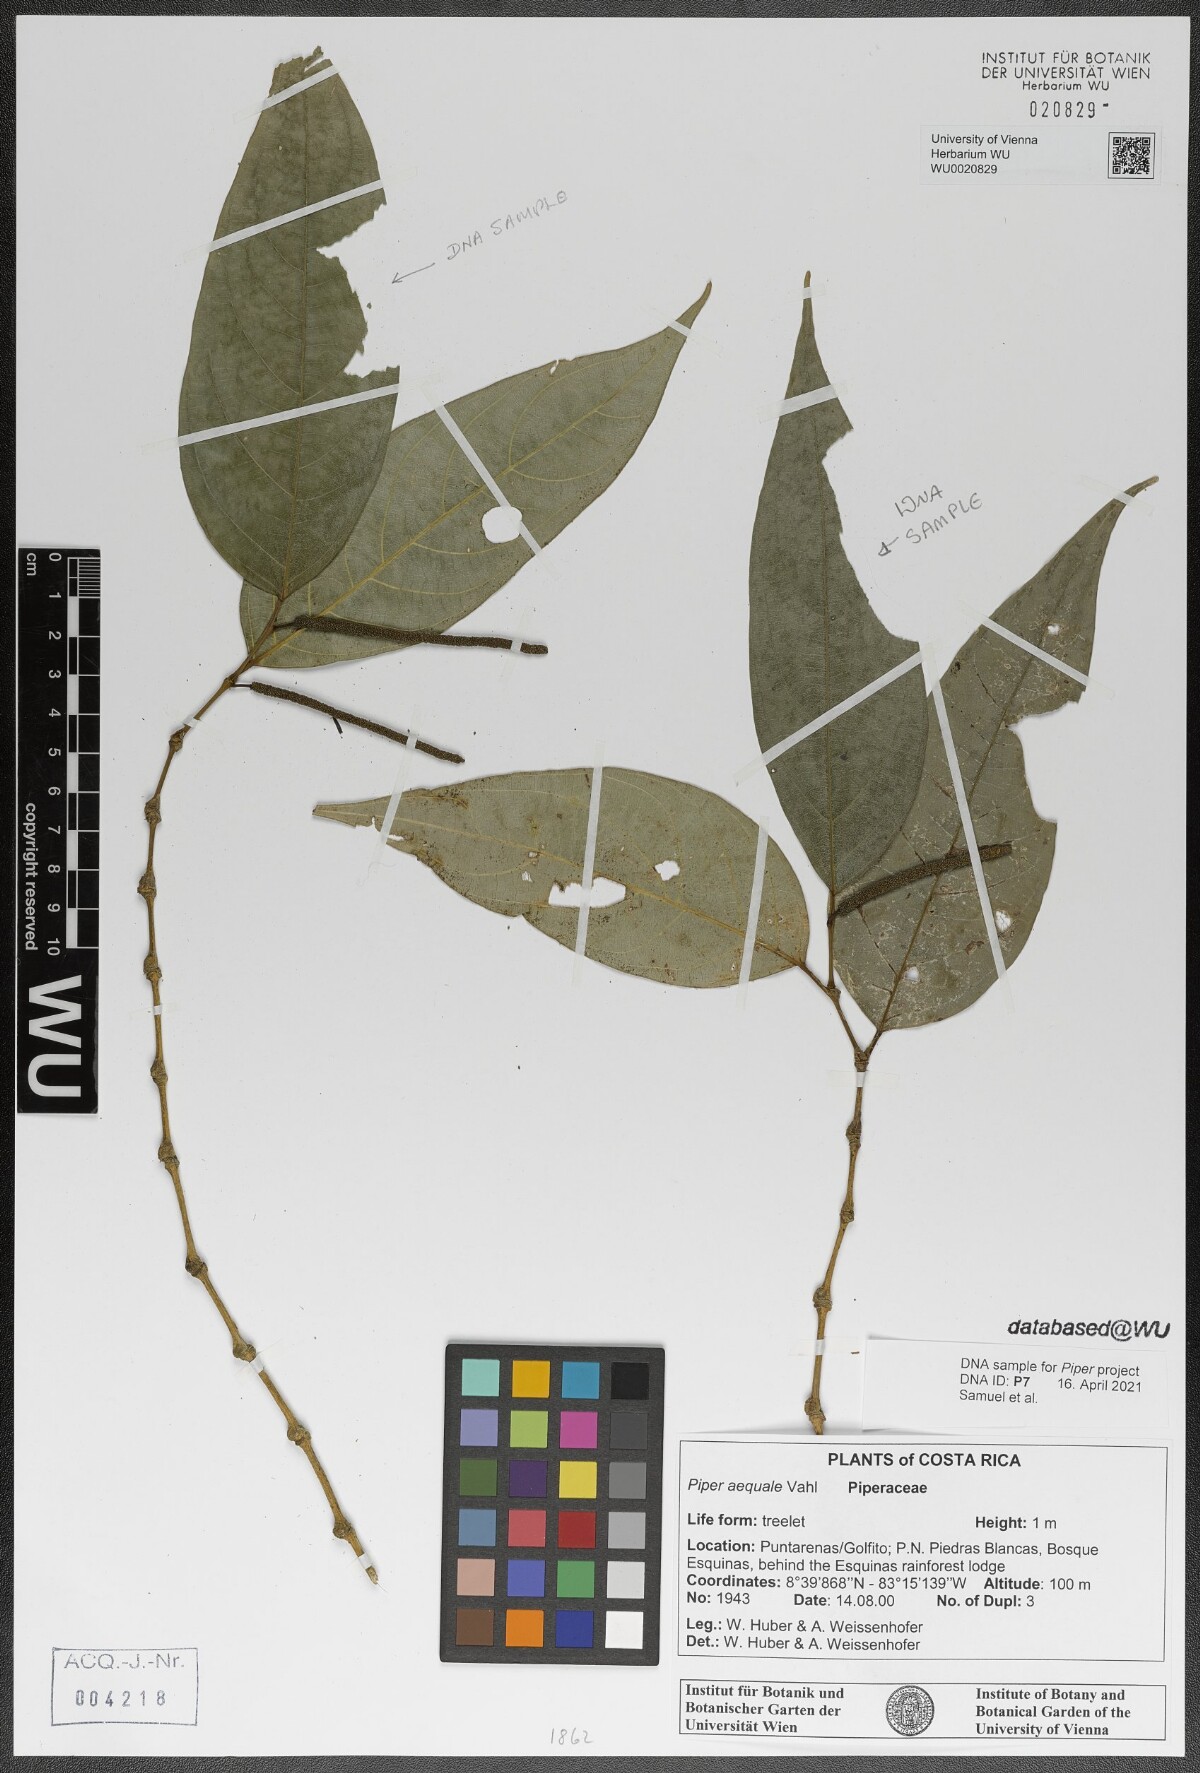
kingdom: Plantae
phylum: Tracheophyta
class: Magnoliopsida
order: Piperales
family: Piperaceae
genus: Piper
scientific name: Piper aequale
